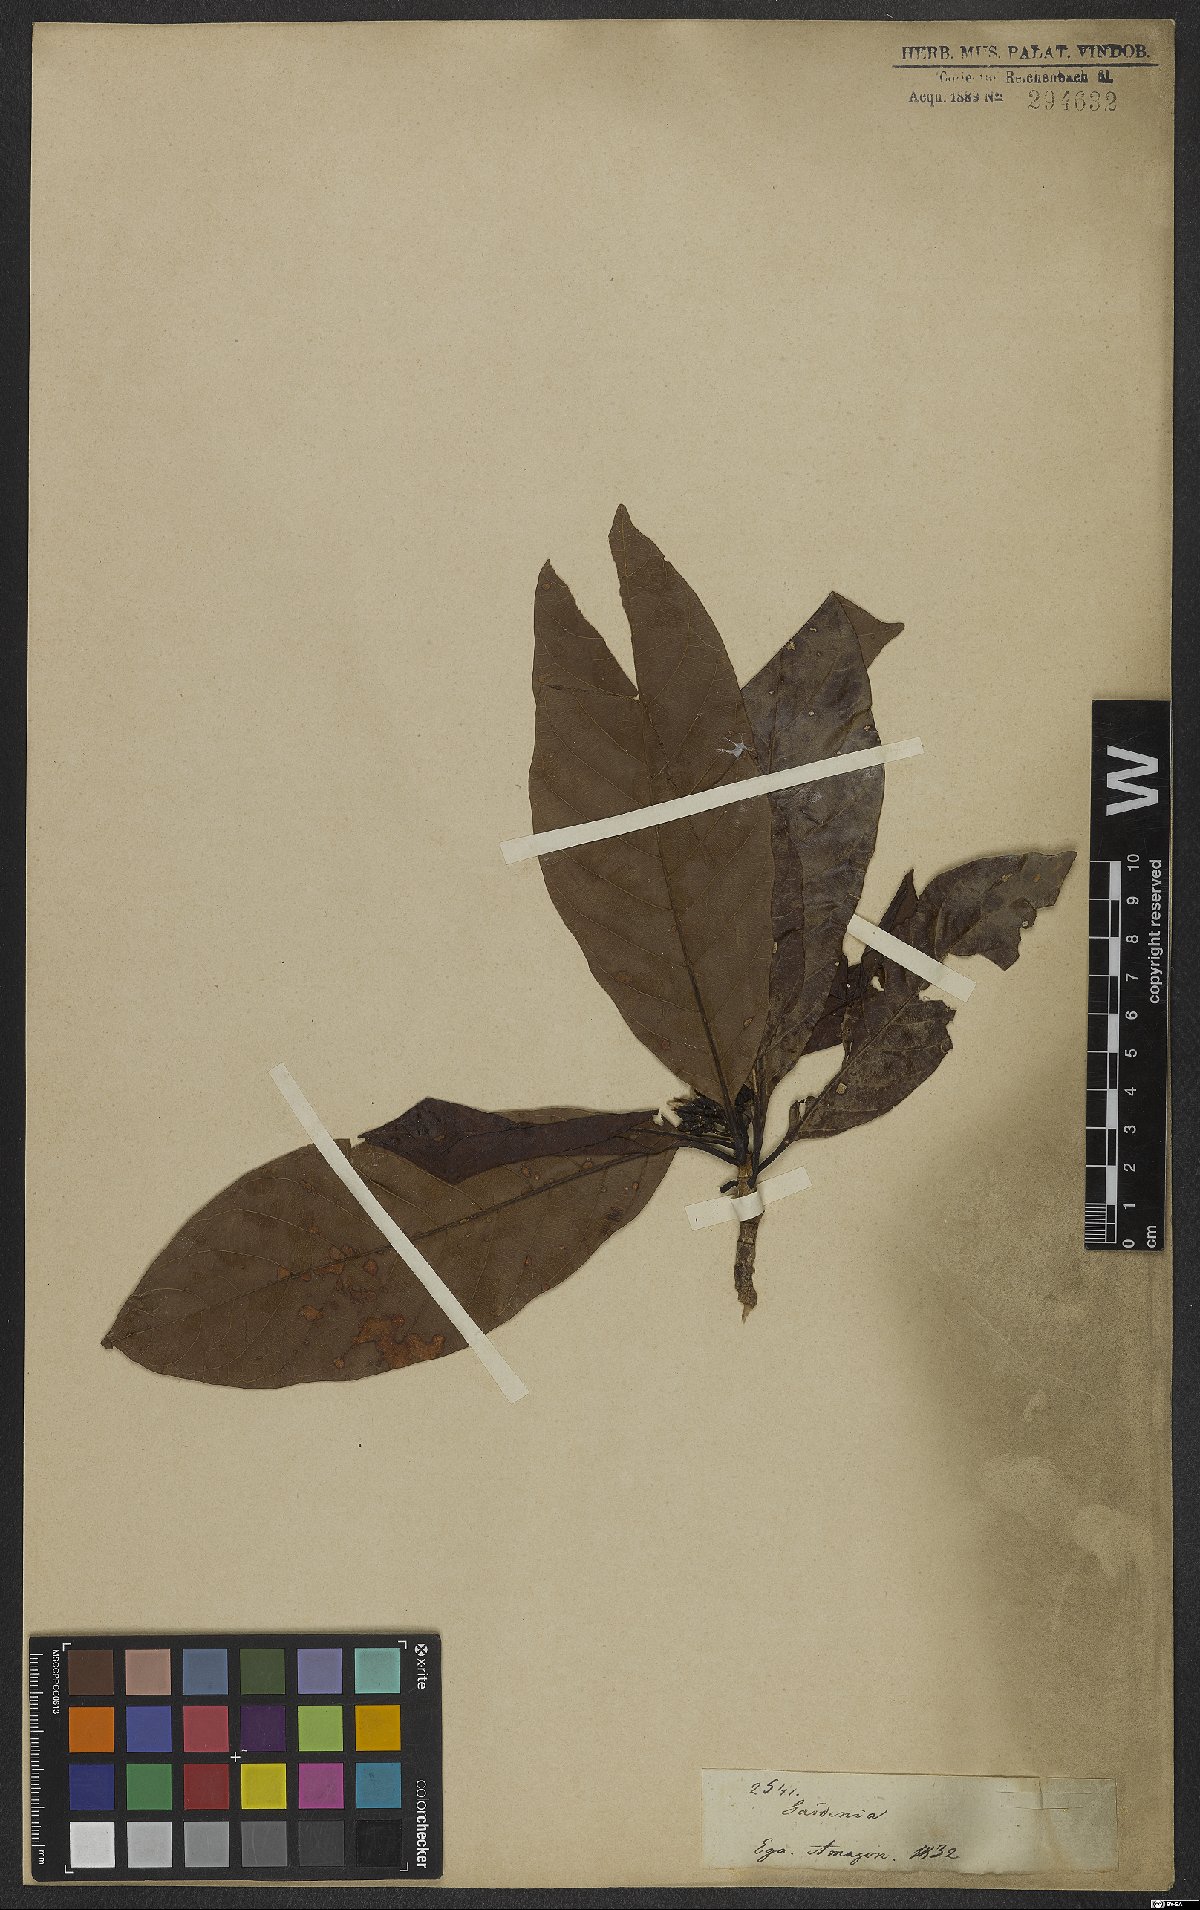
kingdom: Plantae
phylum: Tracheophyta
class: Magnoliopsida
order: Gentianales
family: Rubiaceae
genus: Gardenia
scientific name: Gardenia
